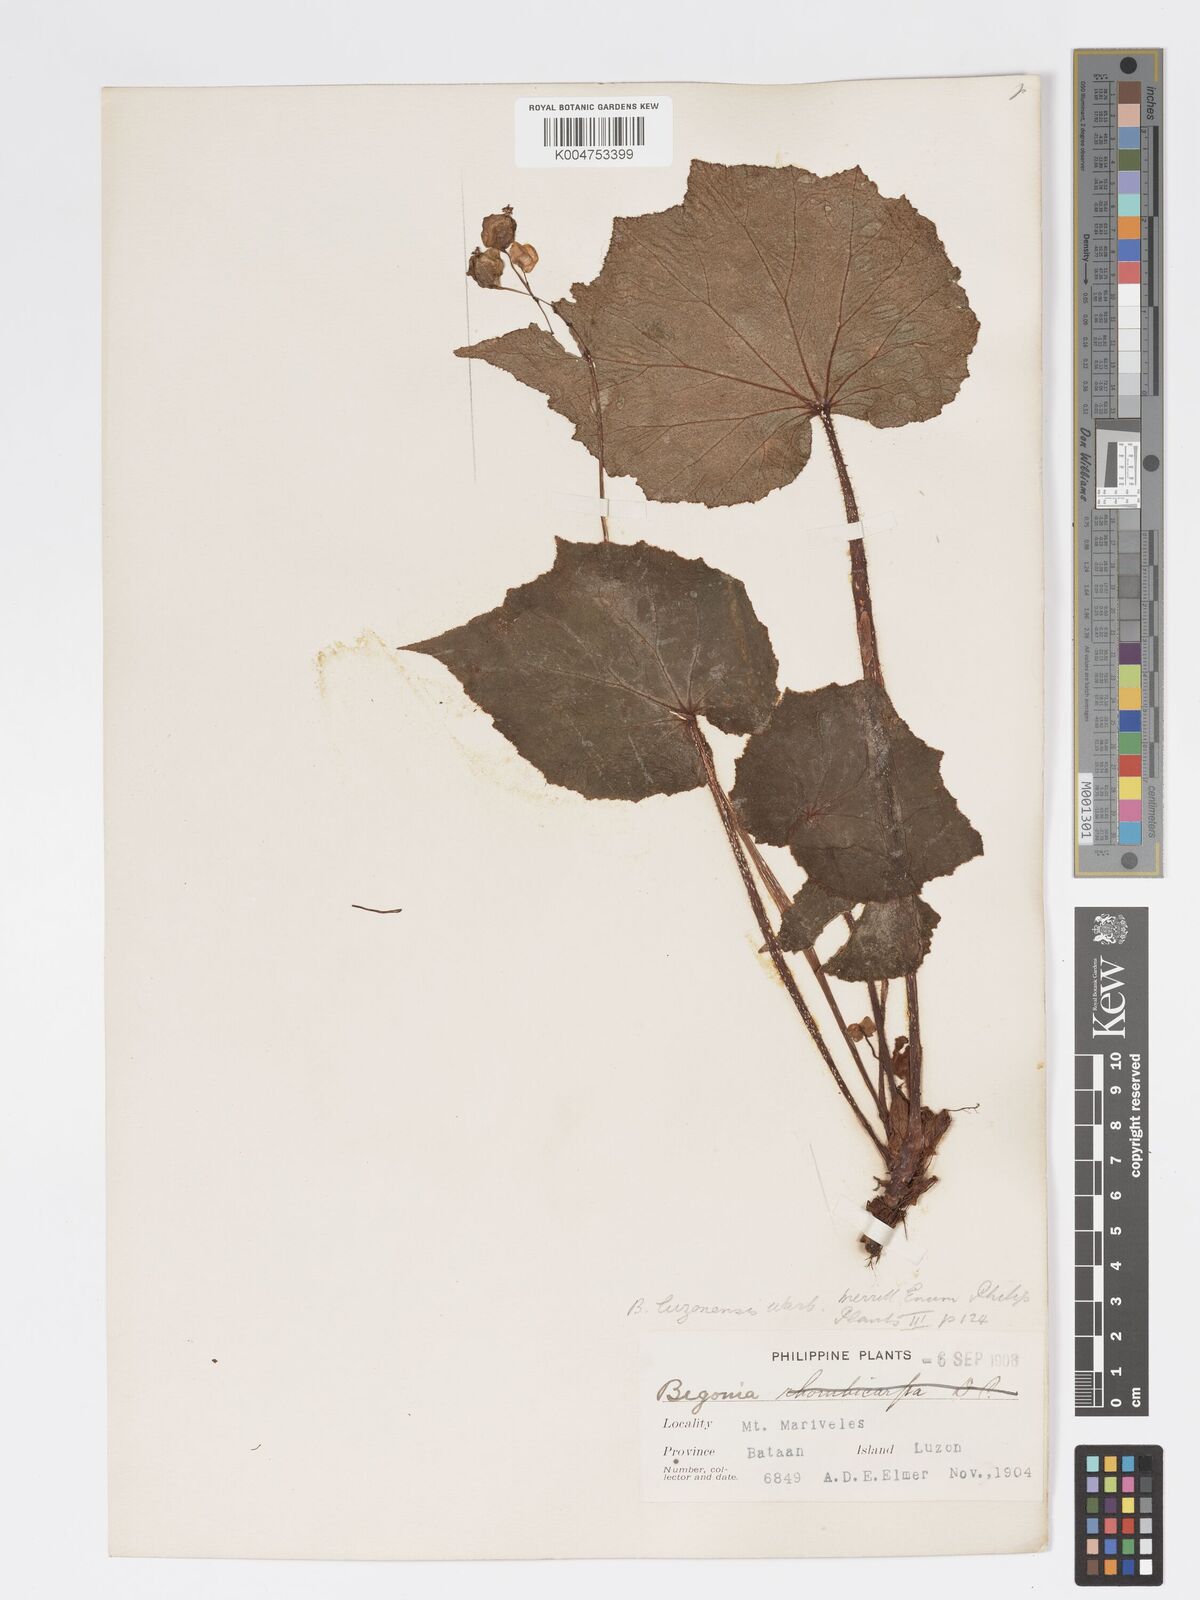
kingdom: Plantae
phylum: Tracheophyta
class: Magnoliopsida
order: Cucurbitales
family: Begoniaceae
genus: Begonia
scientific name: Begonia luzonensis
